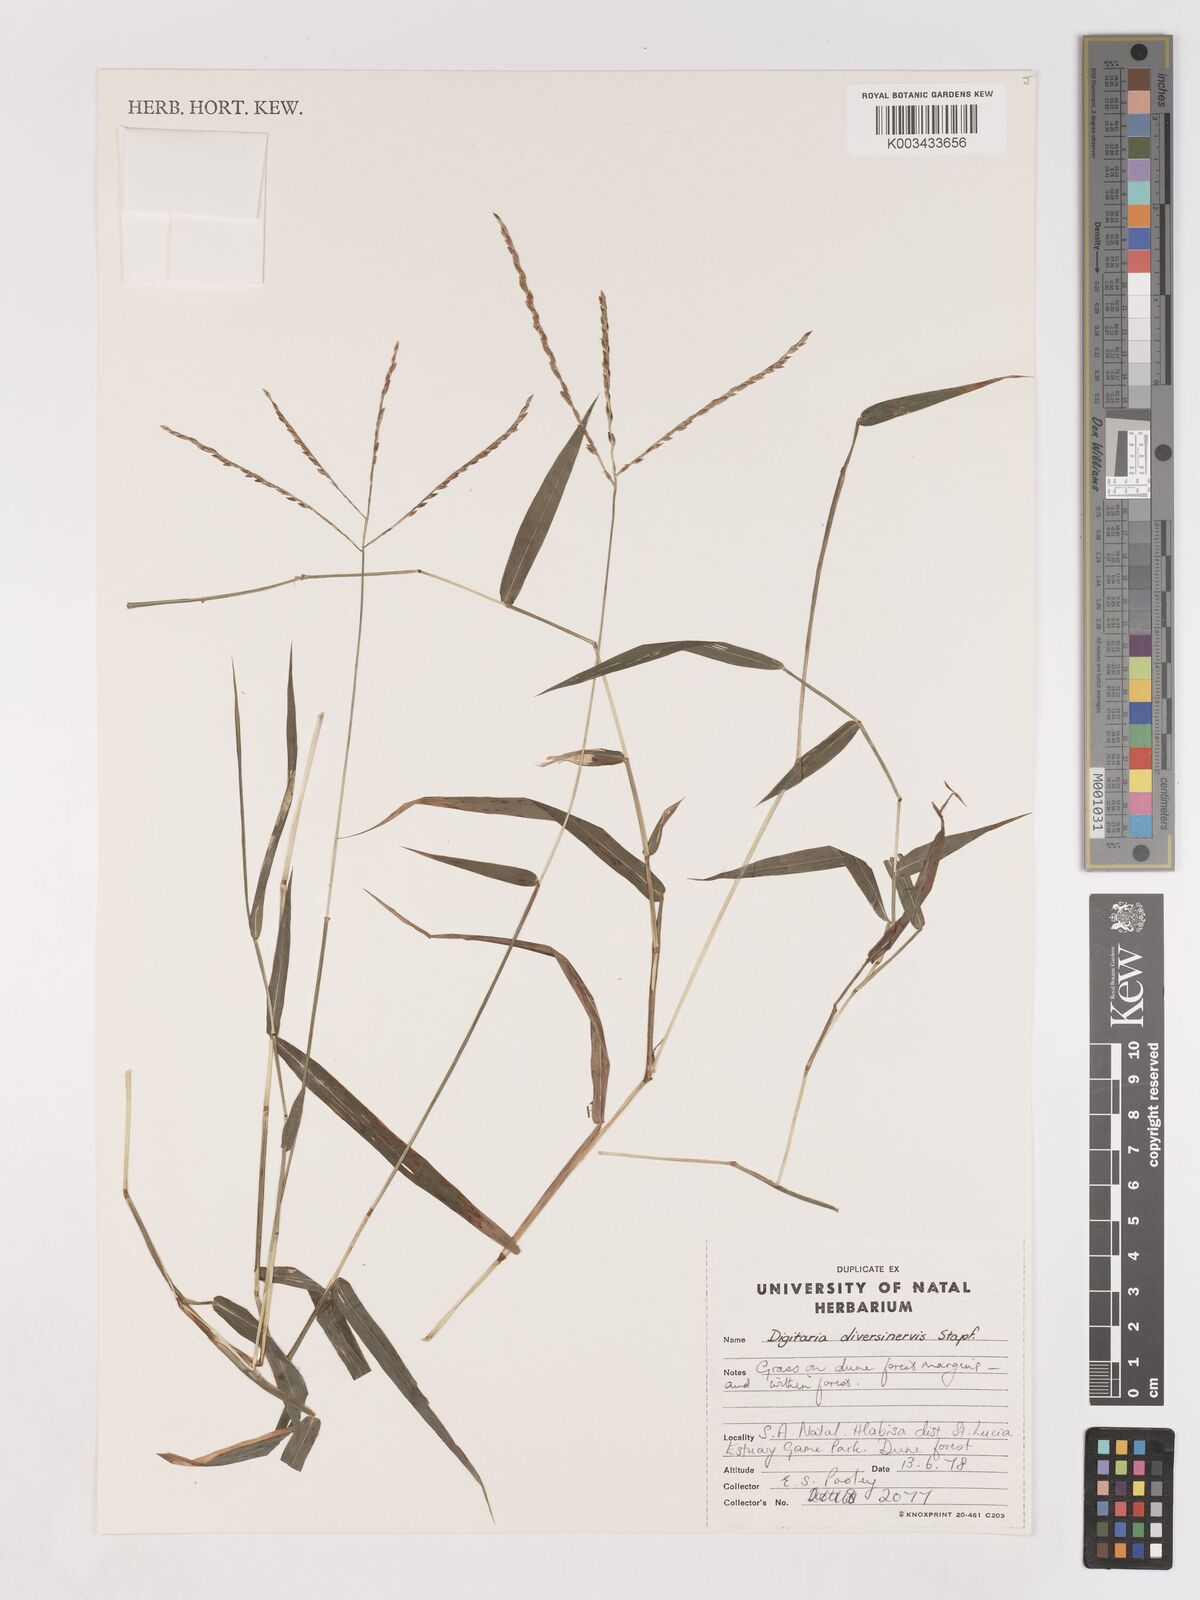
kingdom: Plantae
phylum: Tracheophyta
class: Liliopsida
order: Poales
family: Poaceae
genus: Digitaria
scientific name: Digitaria diversinervis
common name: Richmond finger grass
